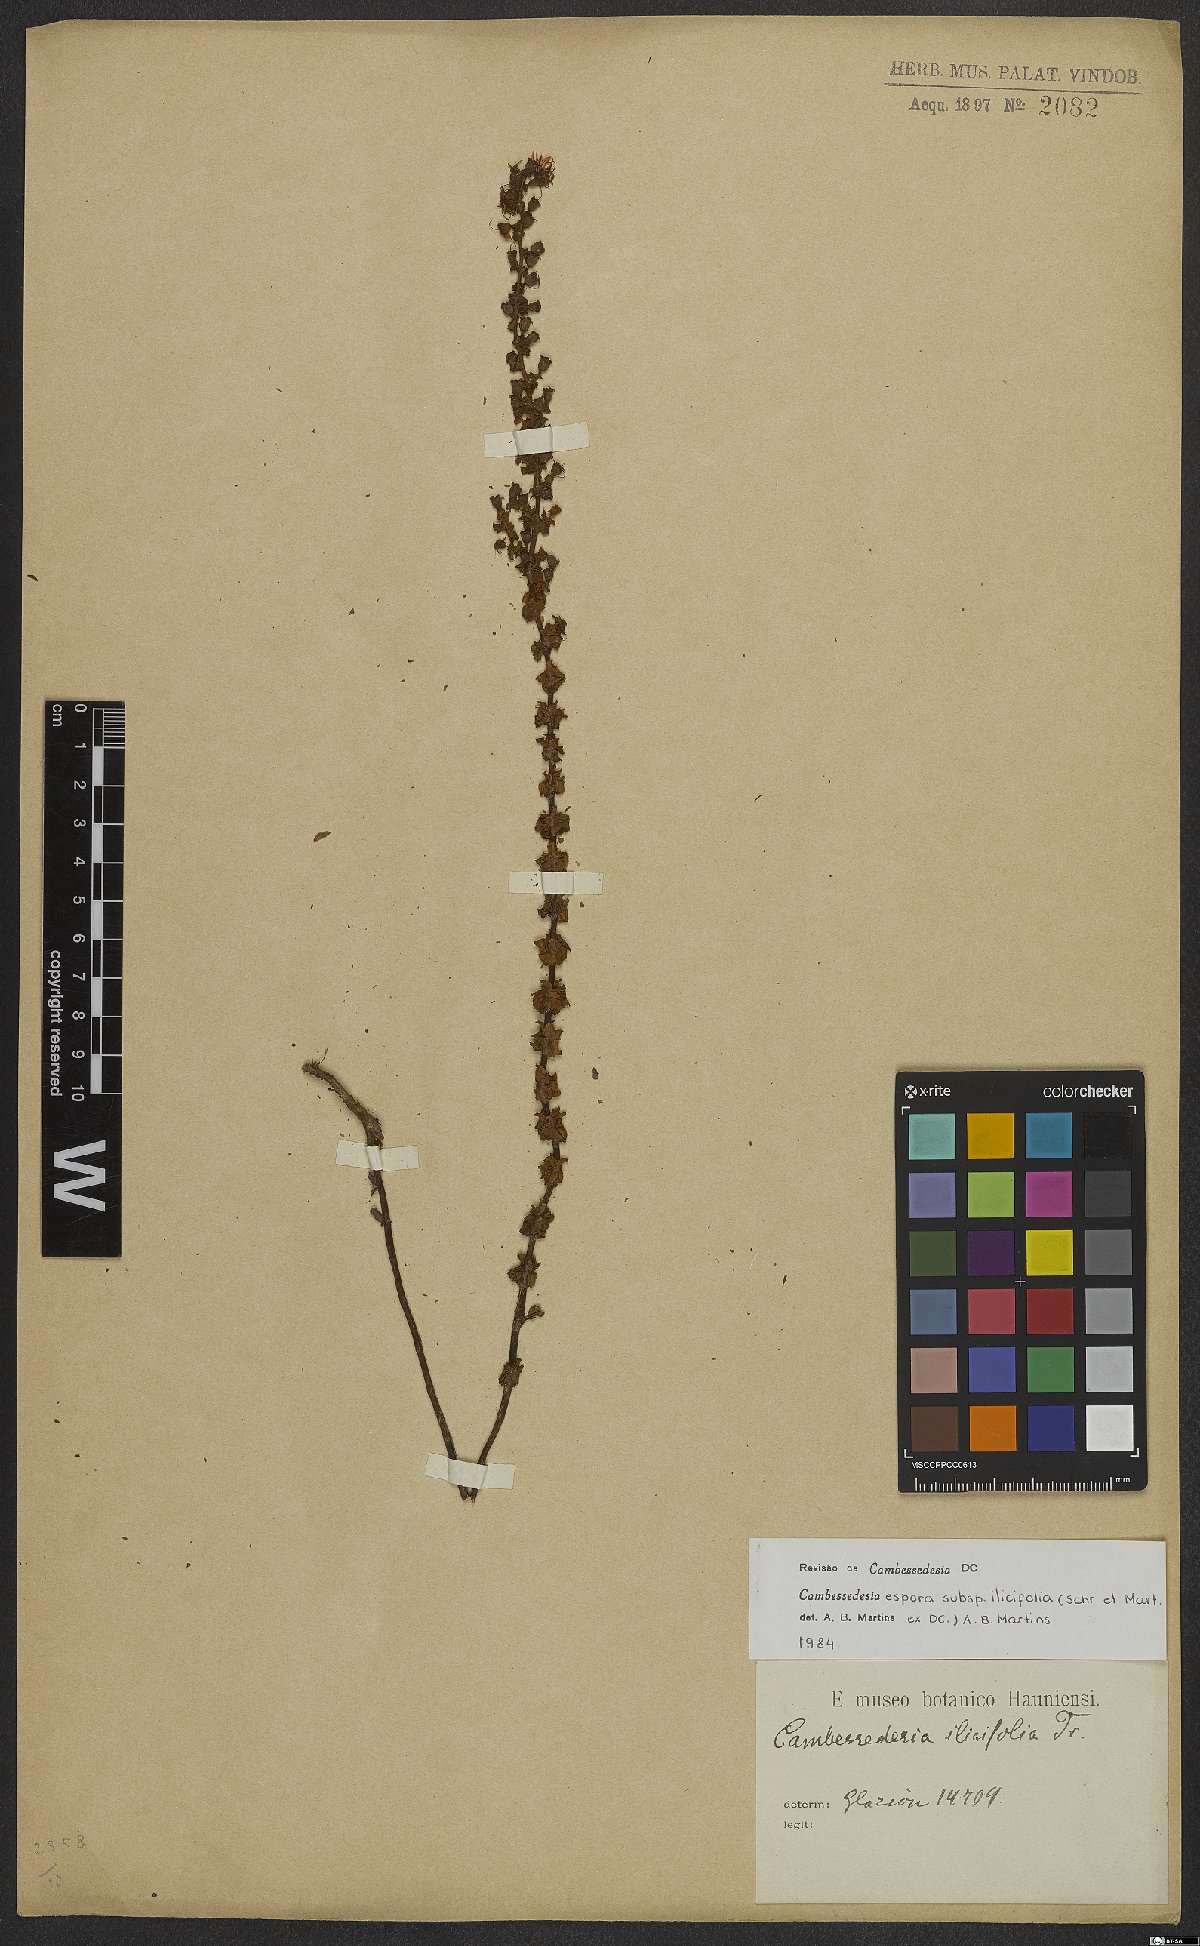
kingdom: Plantae
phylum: Tracheophyta
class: Magnoliopsida
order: Myrtales
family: Melastomataceae
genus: Cambessedesia
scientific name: Cambessedesia espora
